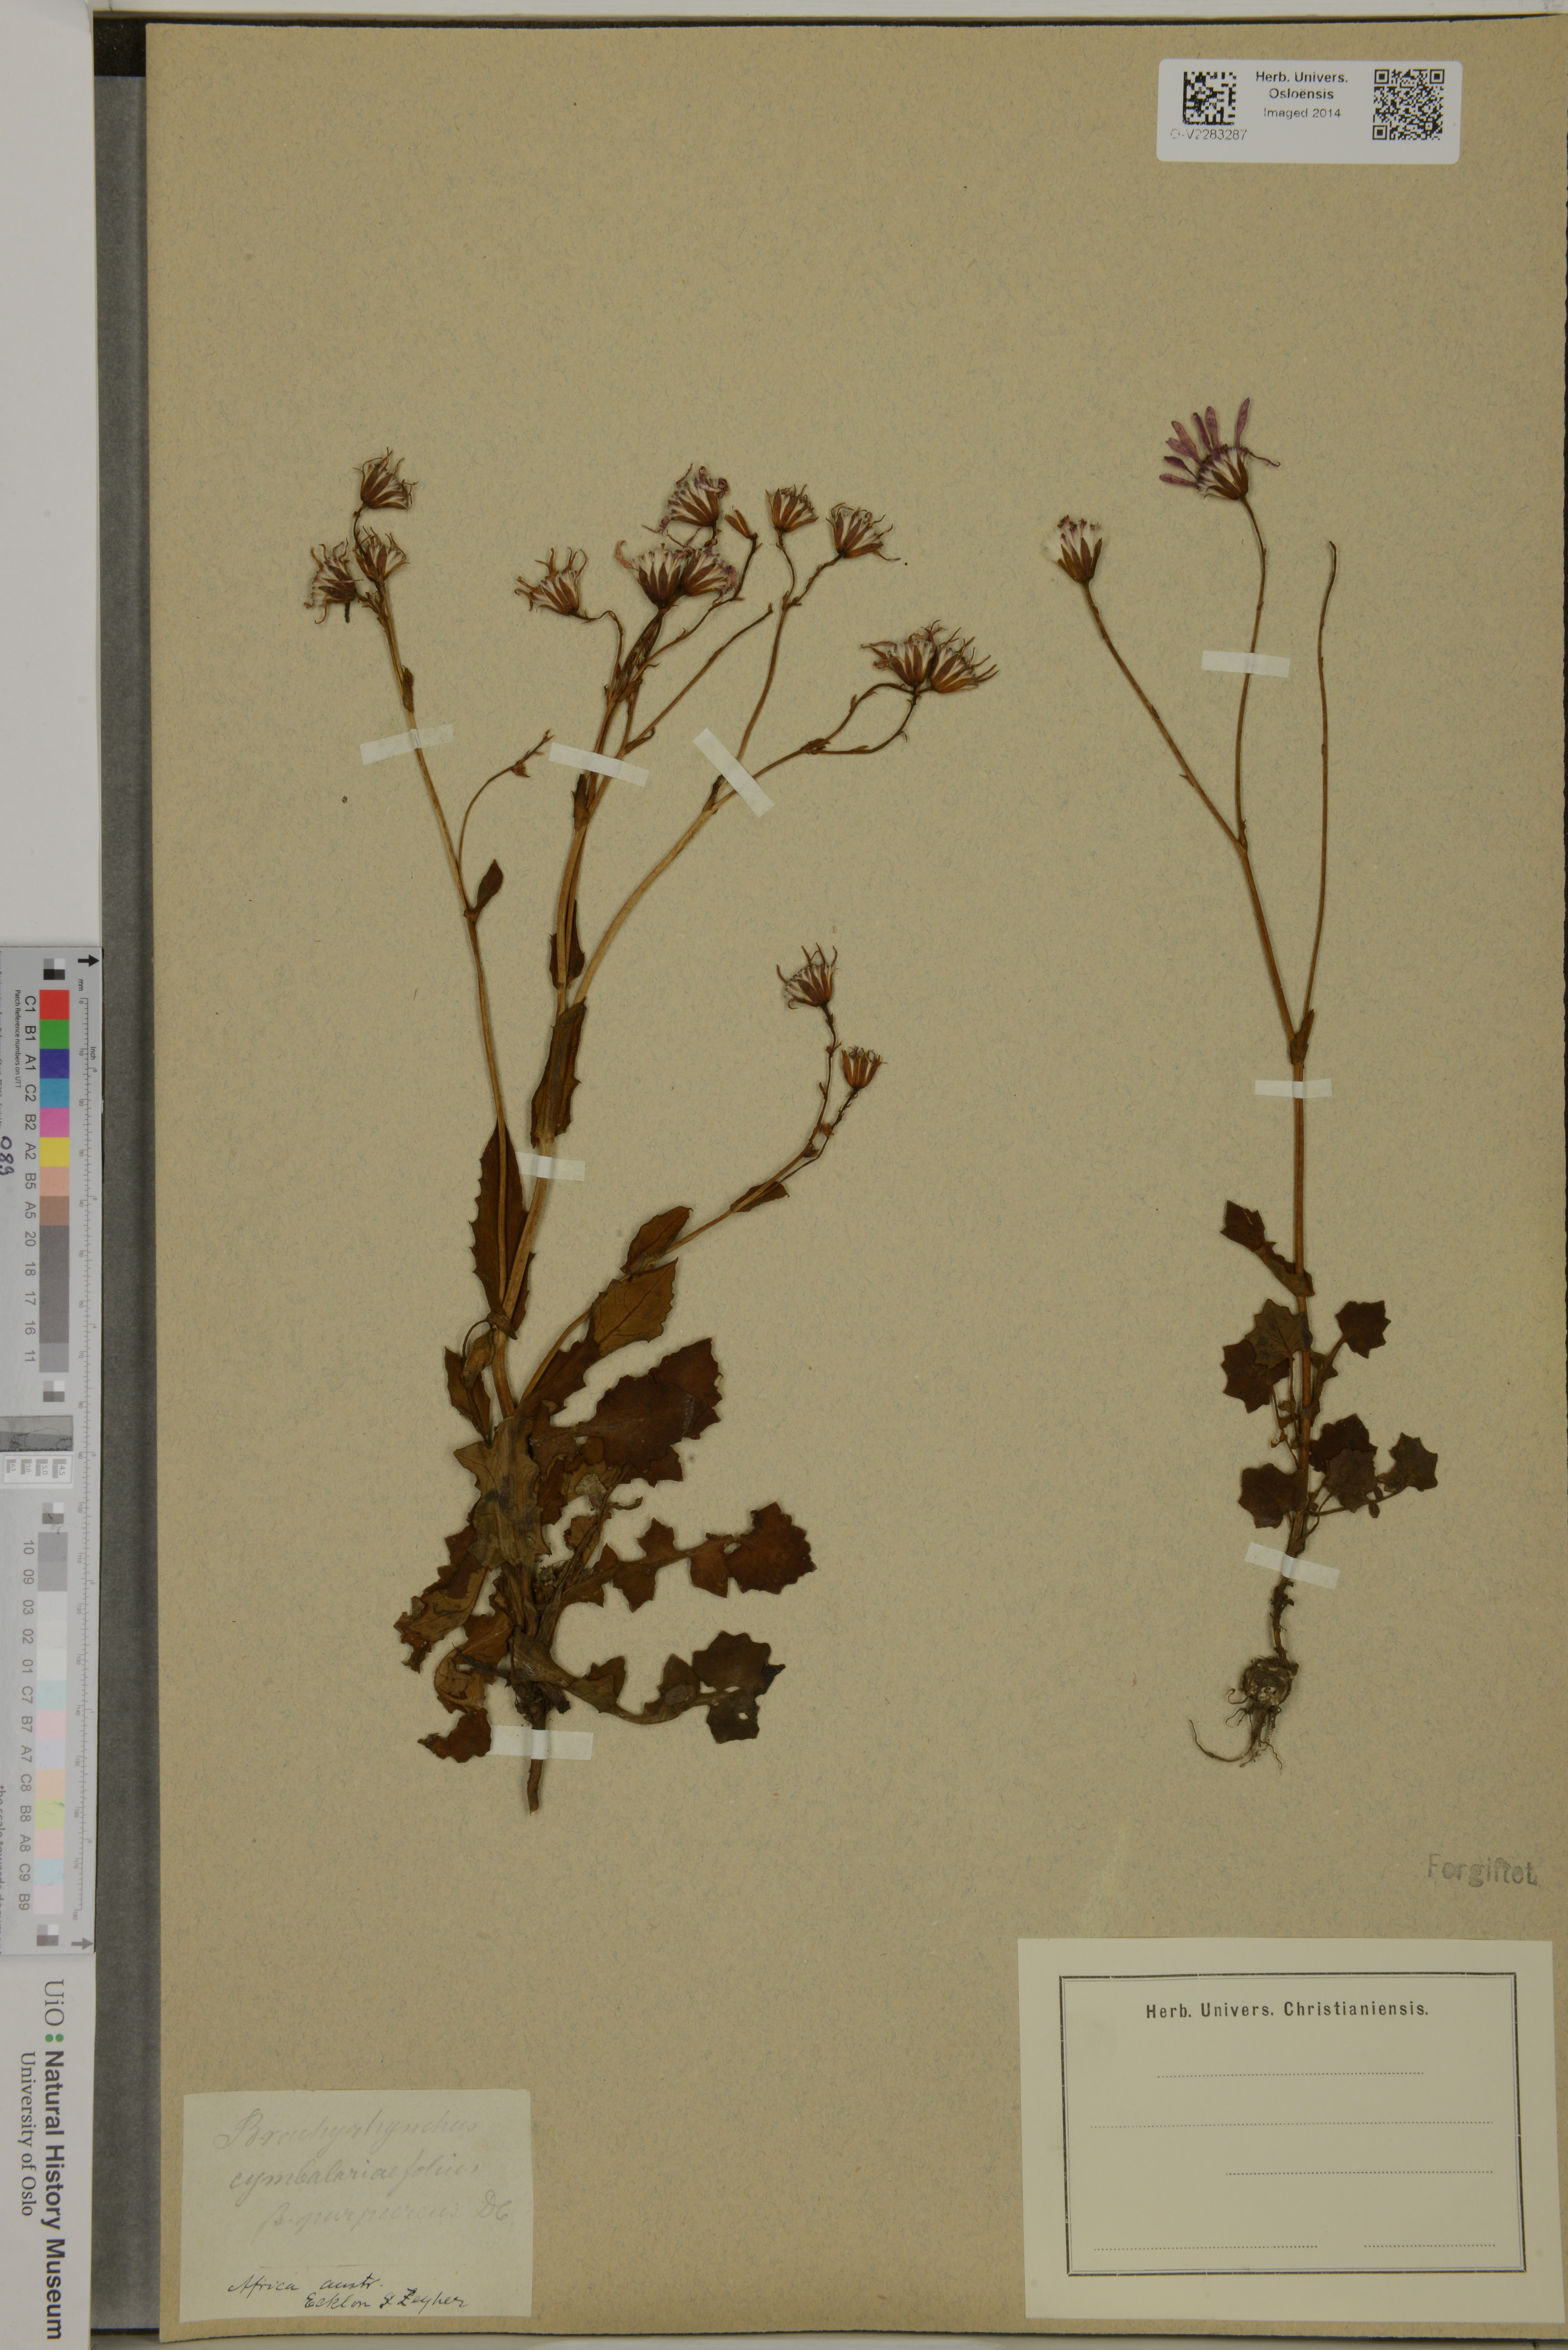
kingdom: Plantae
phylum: Tracheophyta
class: Magnoliopsida
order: Asterales
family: Asteraceae
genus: Senecio
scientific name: Senecio cymbalariifolius
